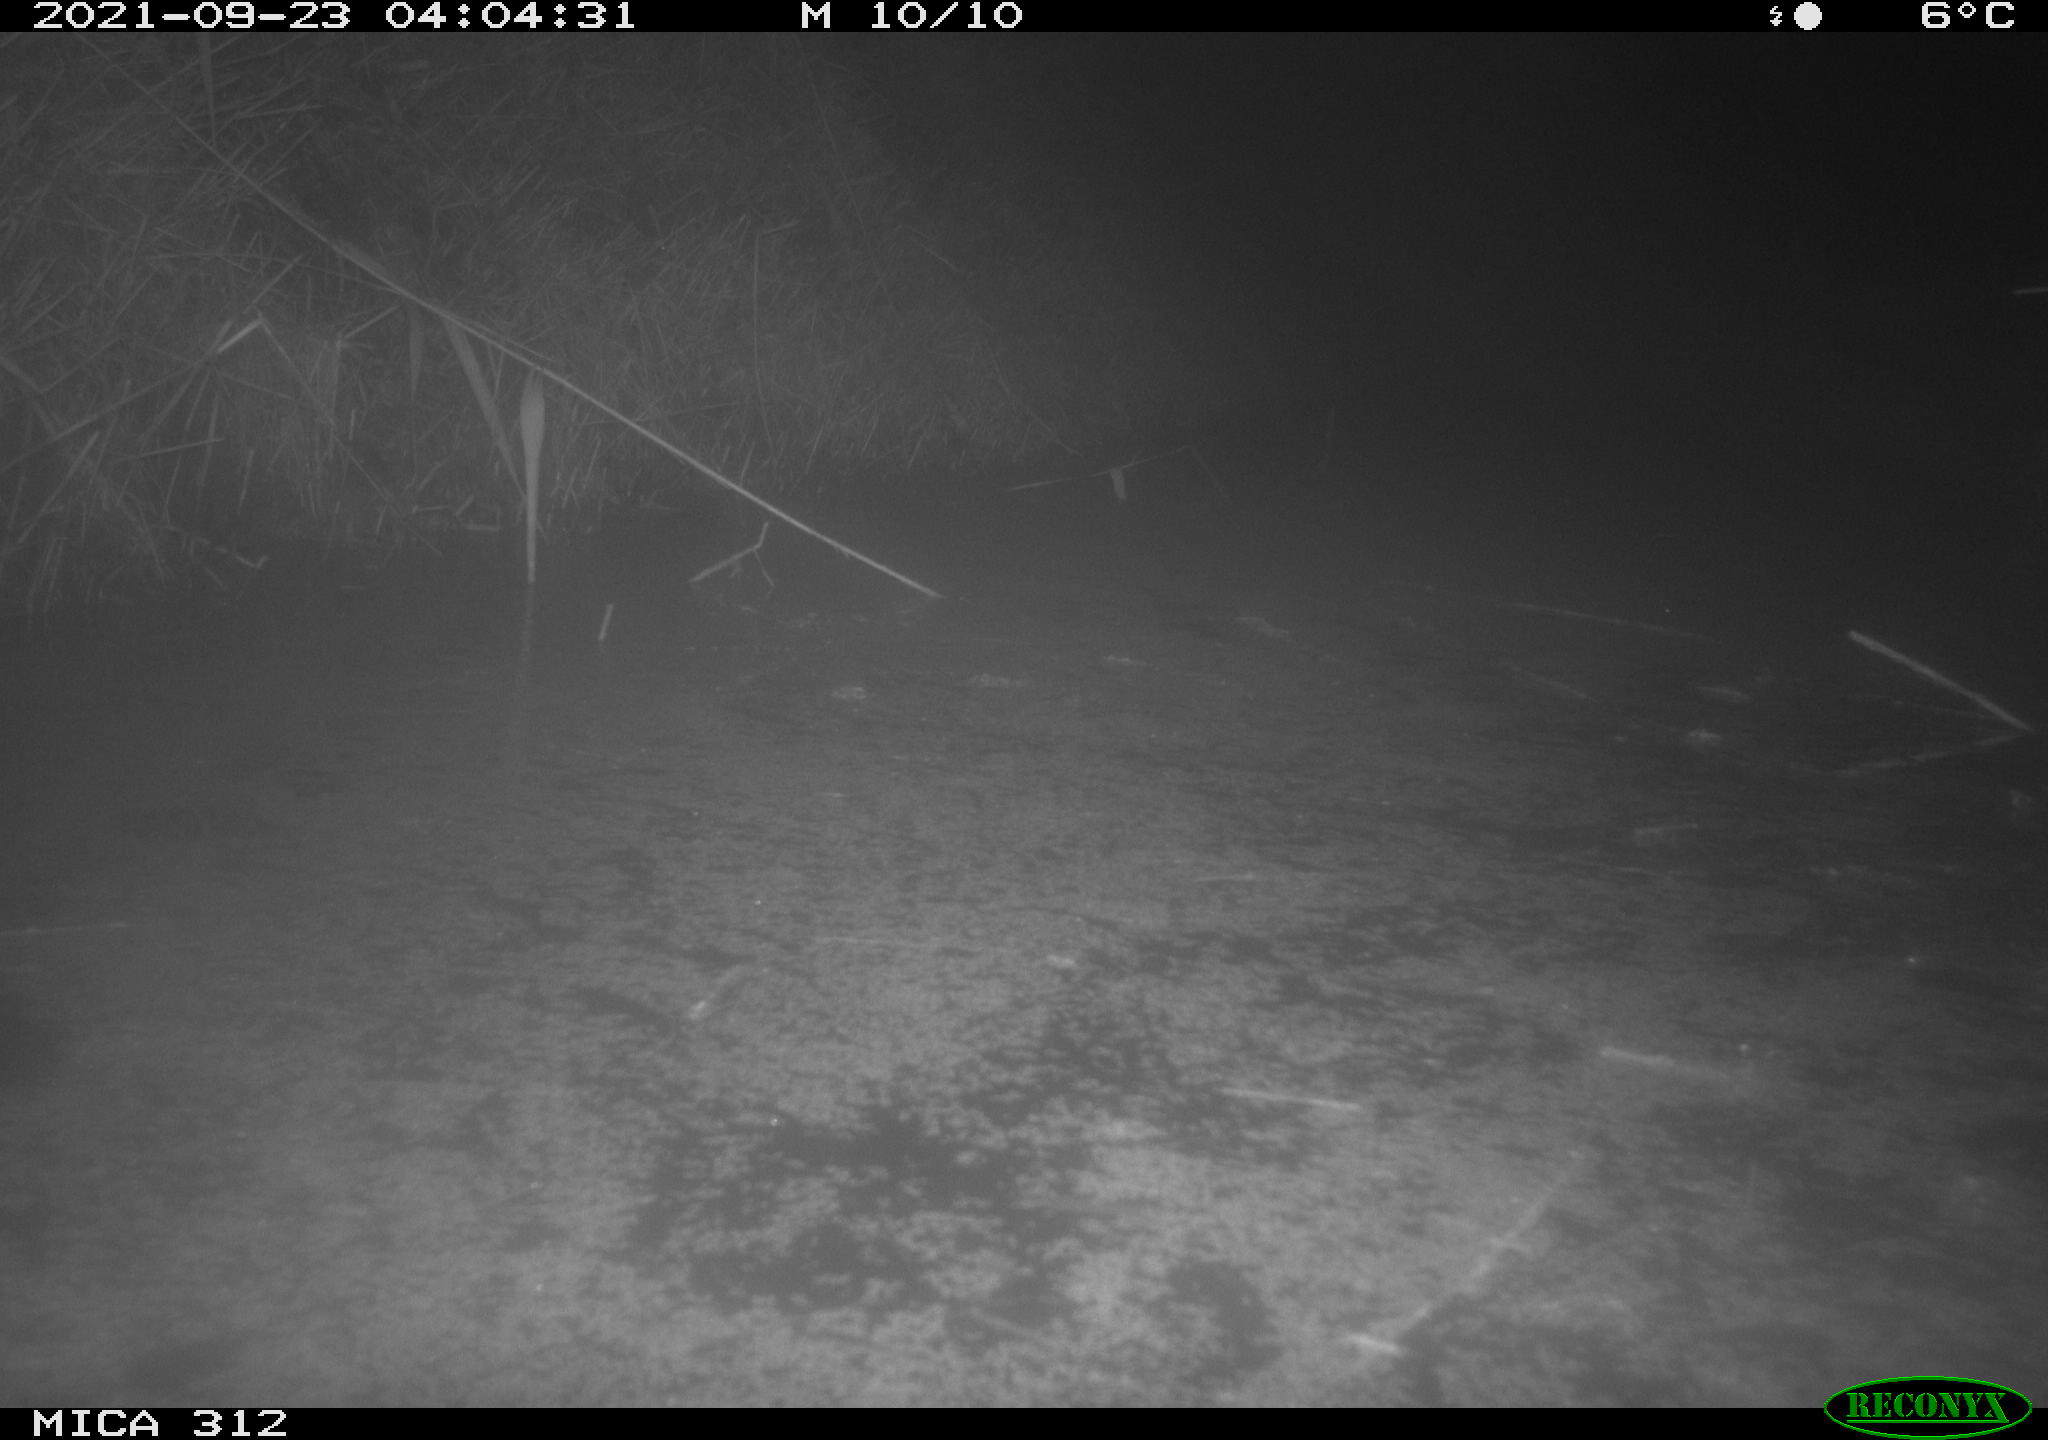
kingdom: Animalia
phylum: Chordata
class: Mammalia
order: Rodentia
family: Muridae
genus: Rattus
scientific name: Rattus norvegicus
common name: Brown rat
